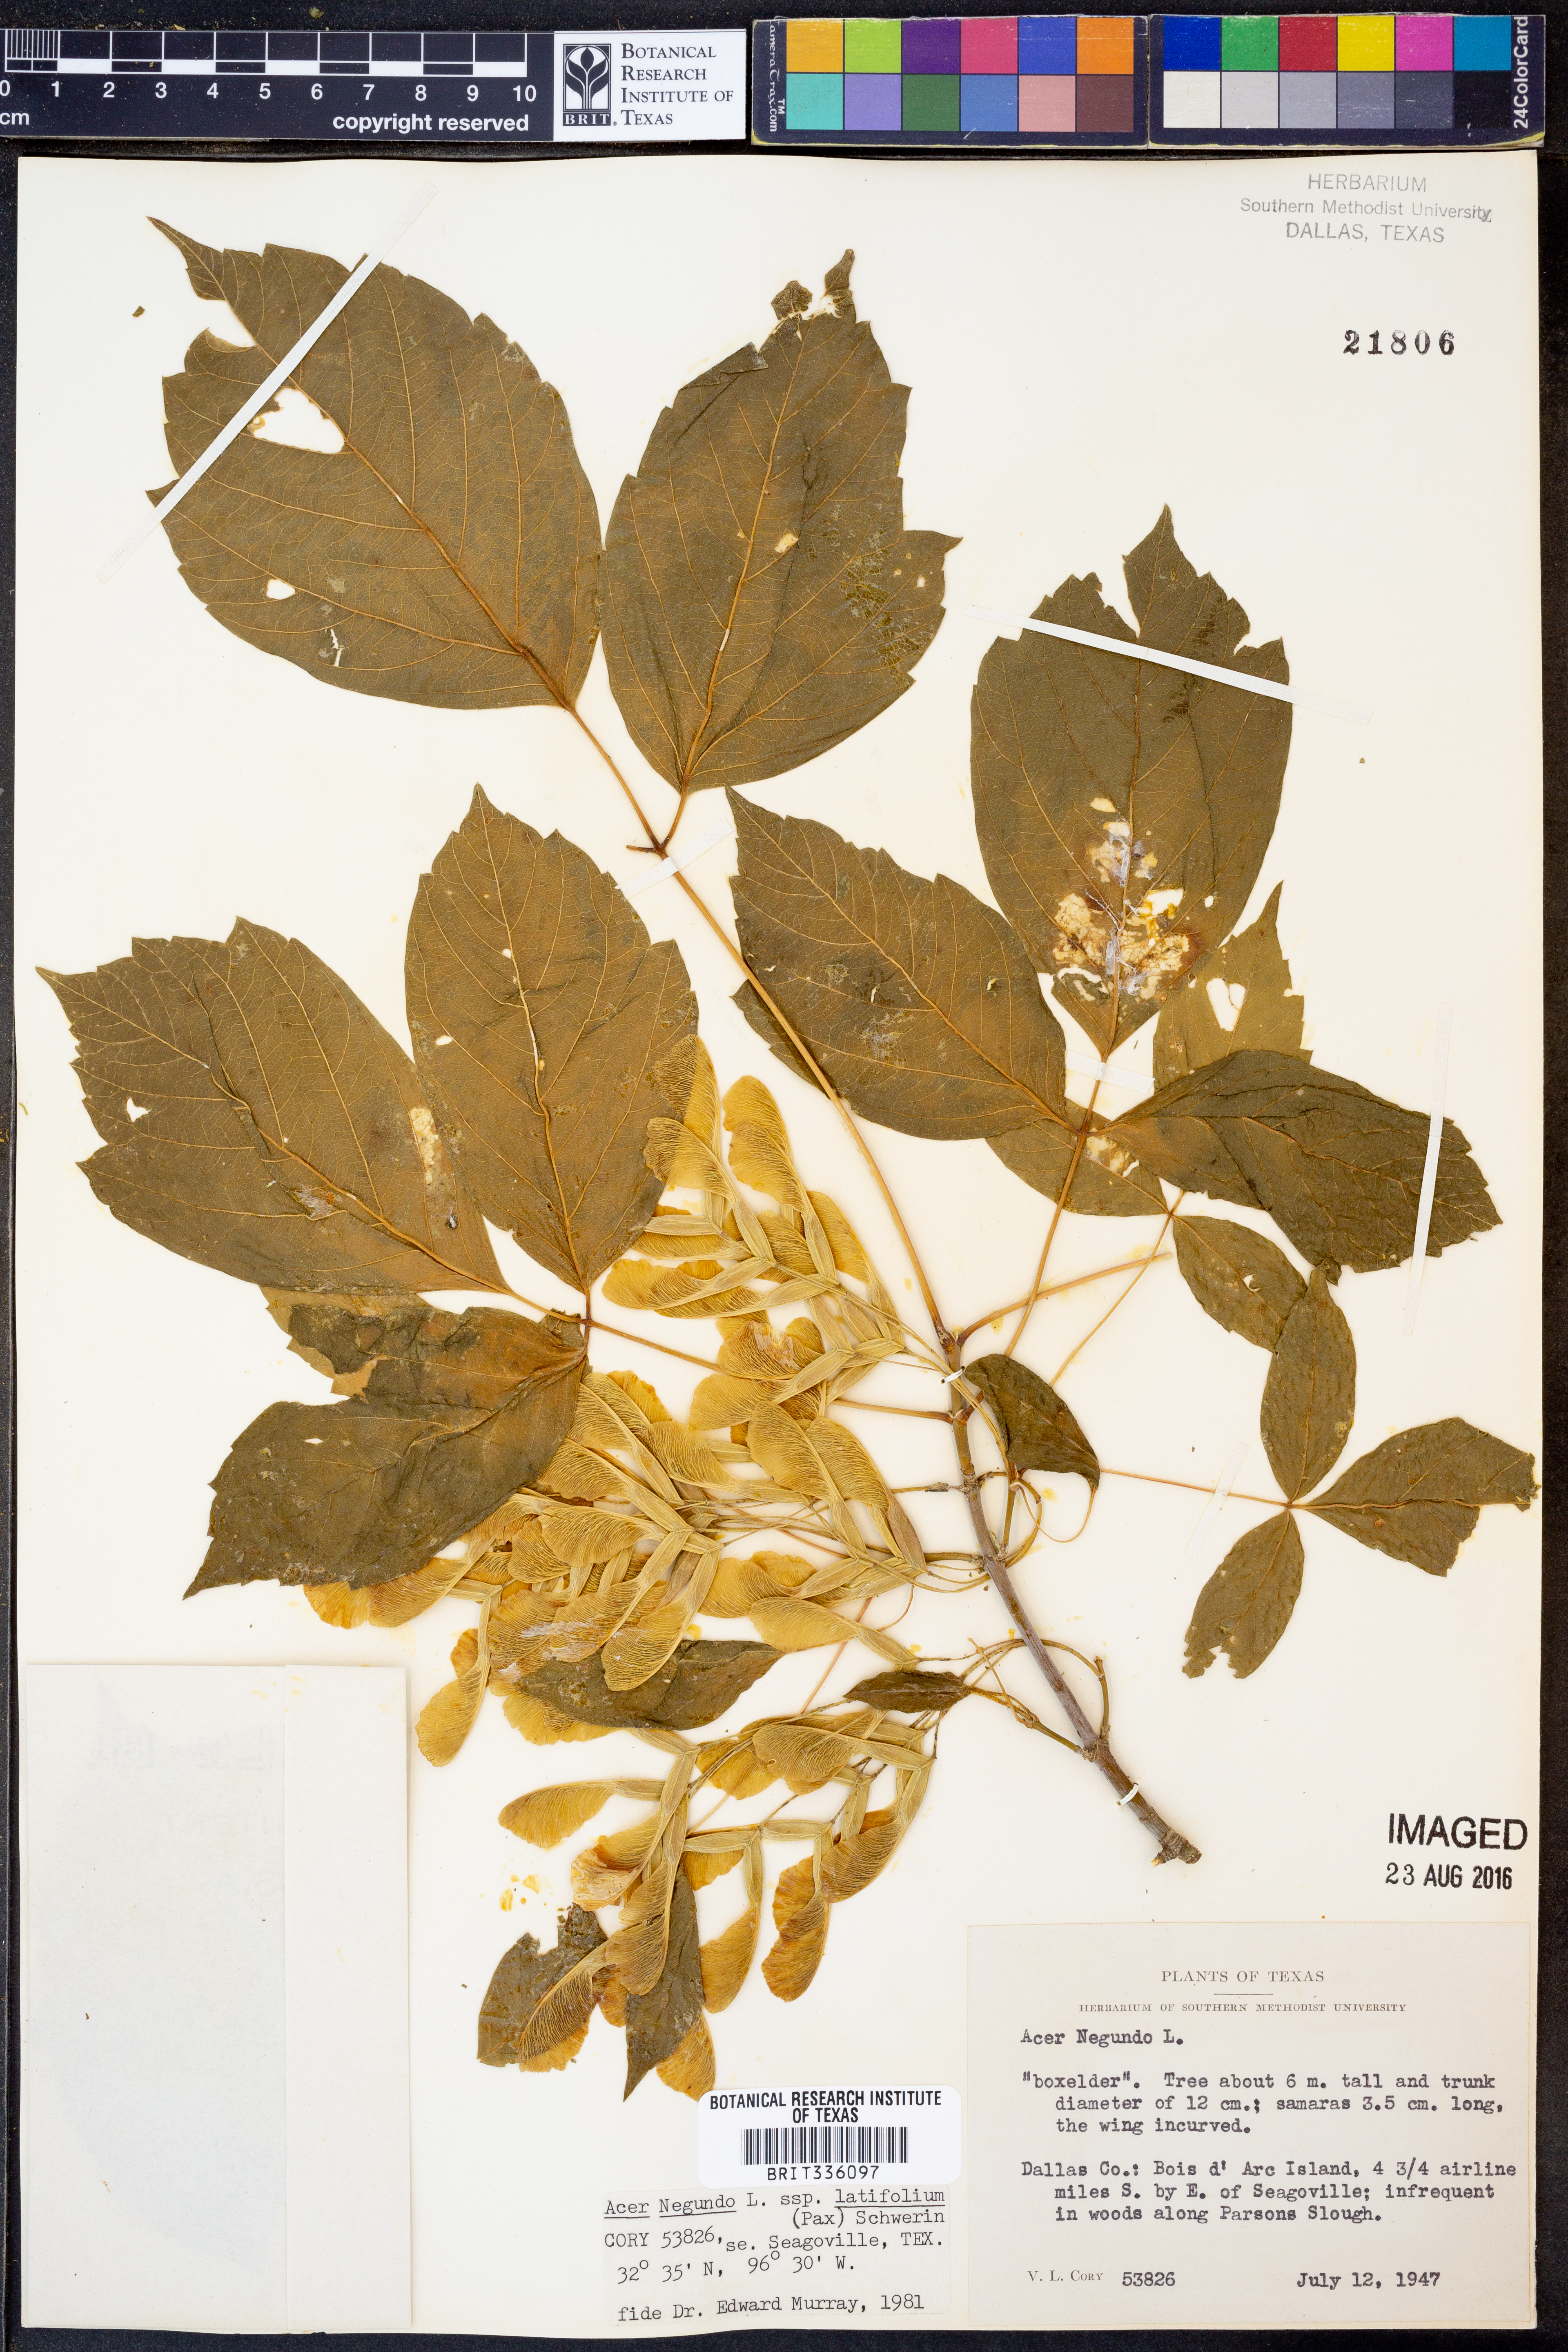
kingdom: Plantae
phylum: Tracheophyta
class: Magnoliopsida
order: Sapindales
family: Sapindaceae
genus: Acer
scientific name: Acer negundo
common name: Ashleaf maple
